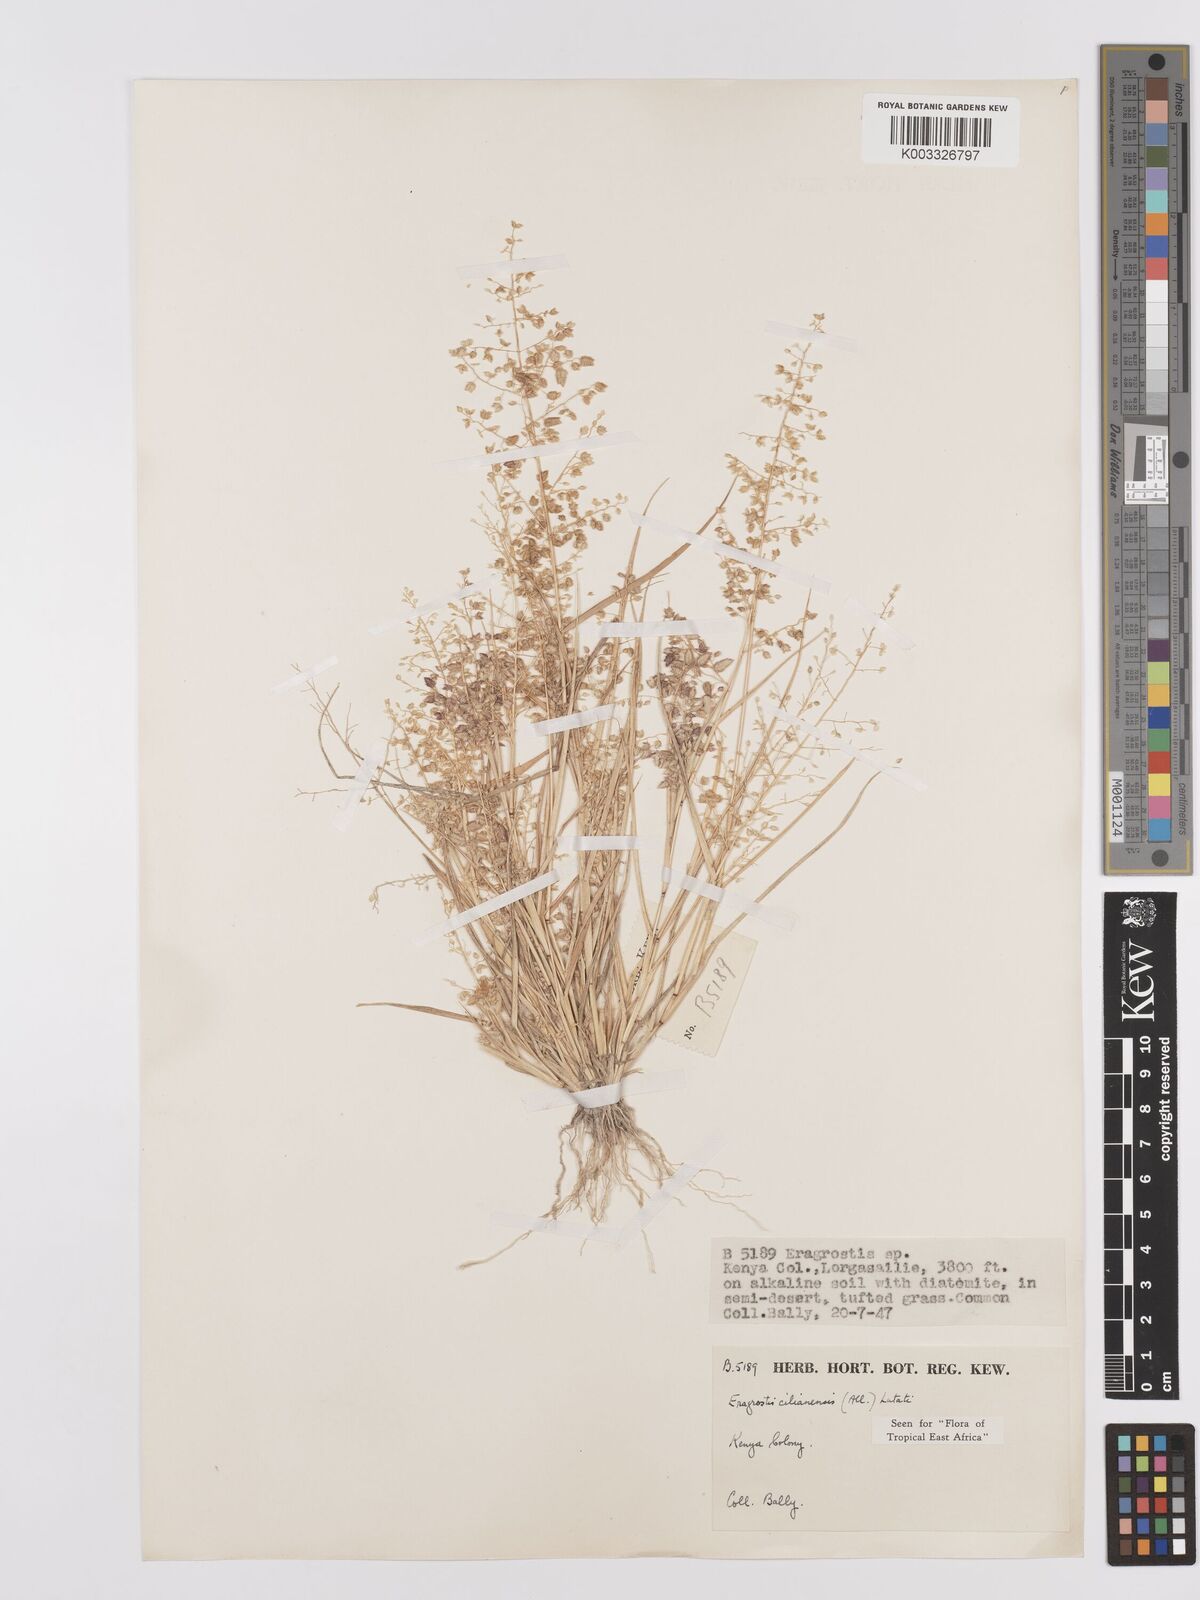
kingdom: Plantae
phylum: Tracheophyta
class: Liliopsida
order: Poales
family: Poaceae
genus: Eragrostis
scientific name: Eragrostis cilianensis
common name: Stinkgrass
